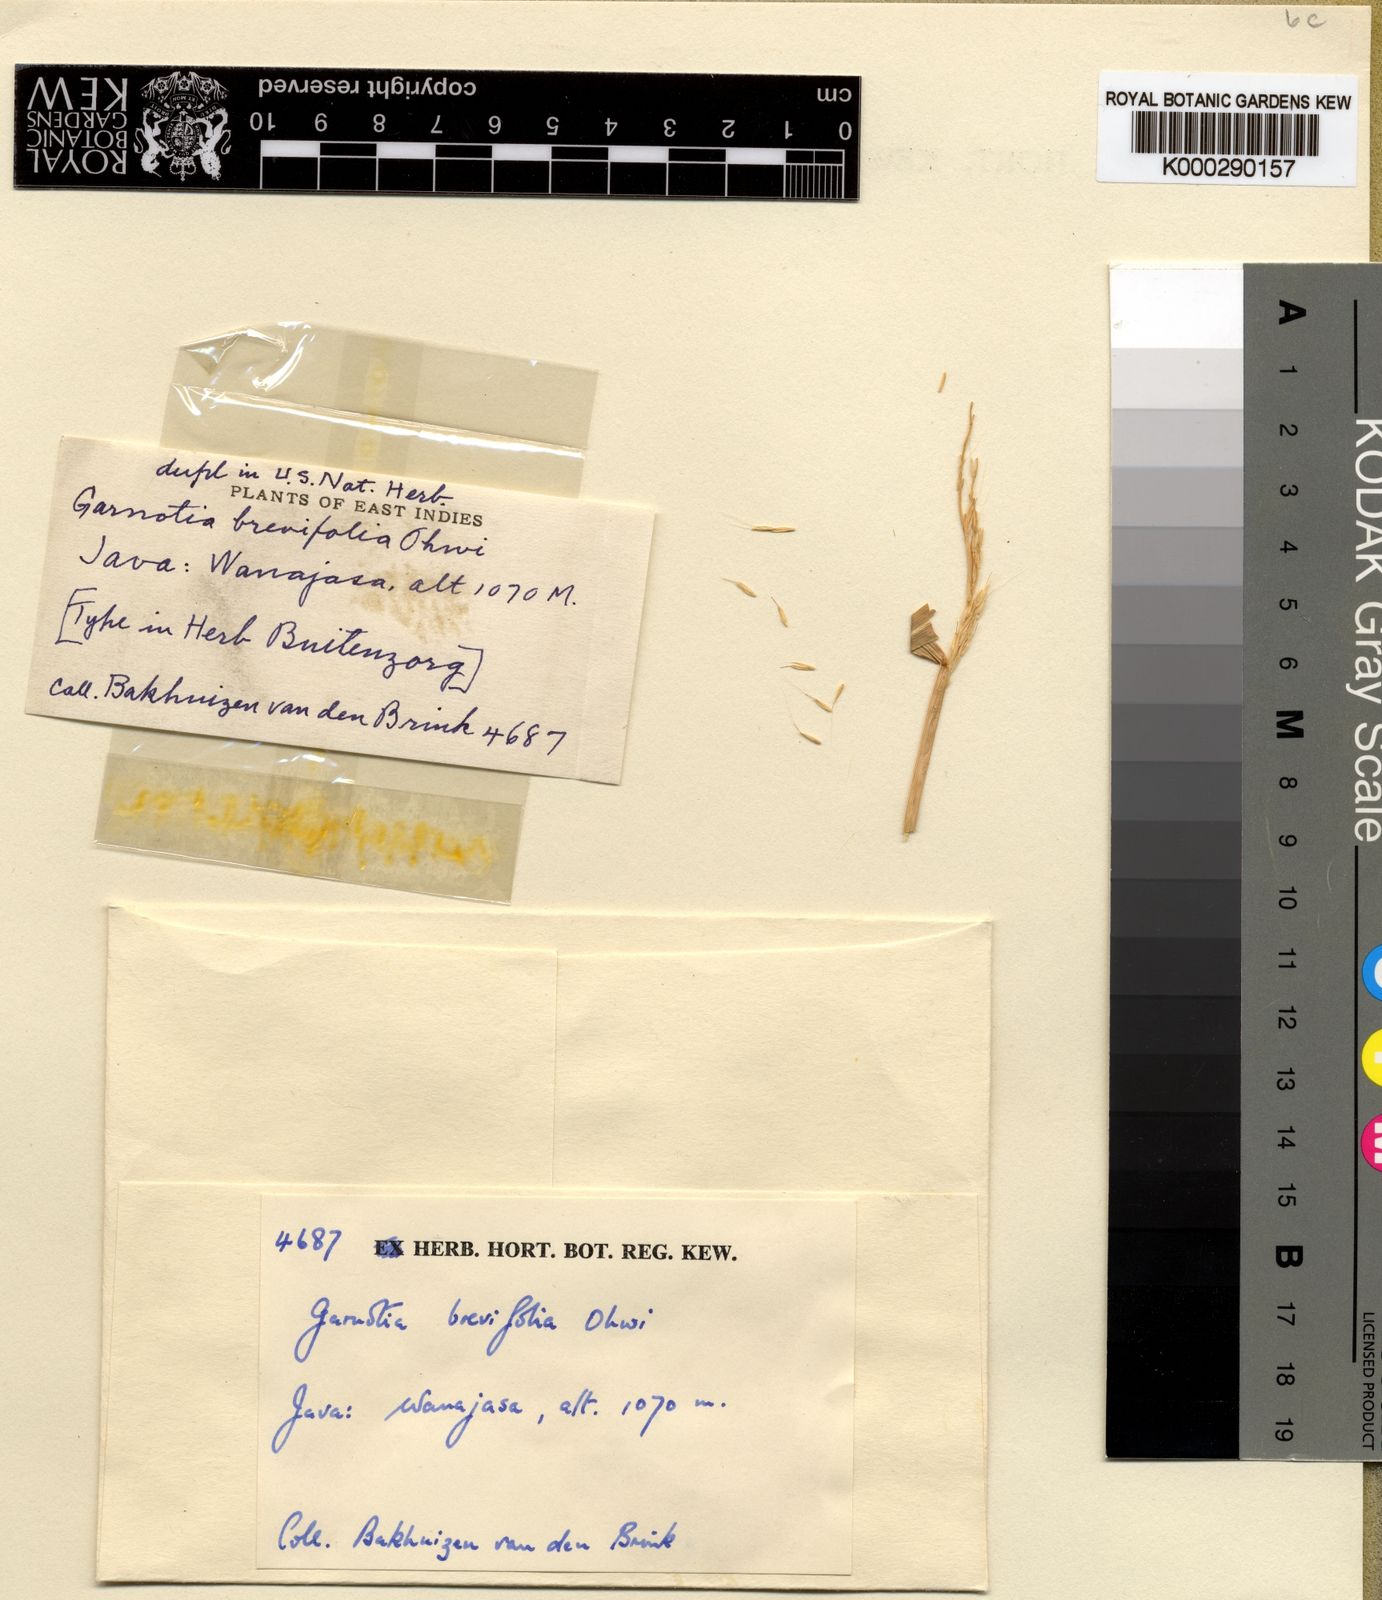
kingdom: Plantae
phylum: Tracheophyta
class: Liliopsida
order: Poales
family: Poaceae
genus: Garnotia
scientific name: Garnotia tenella
